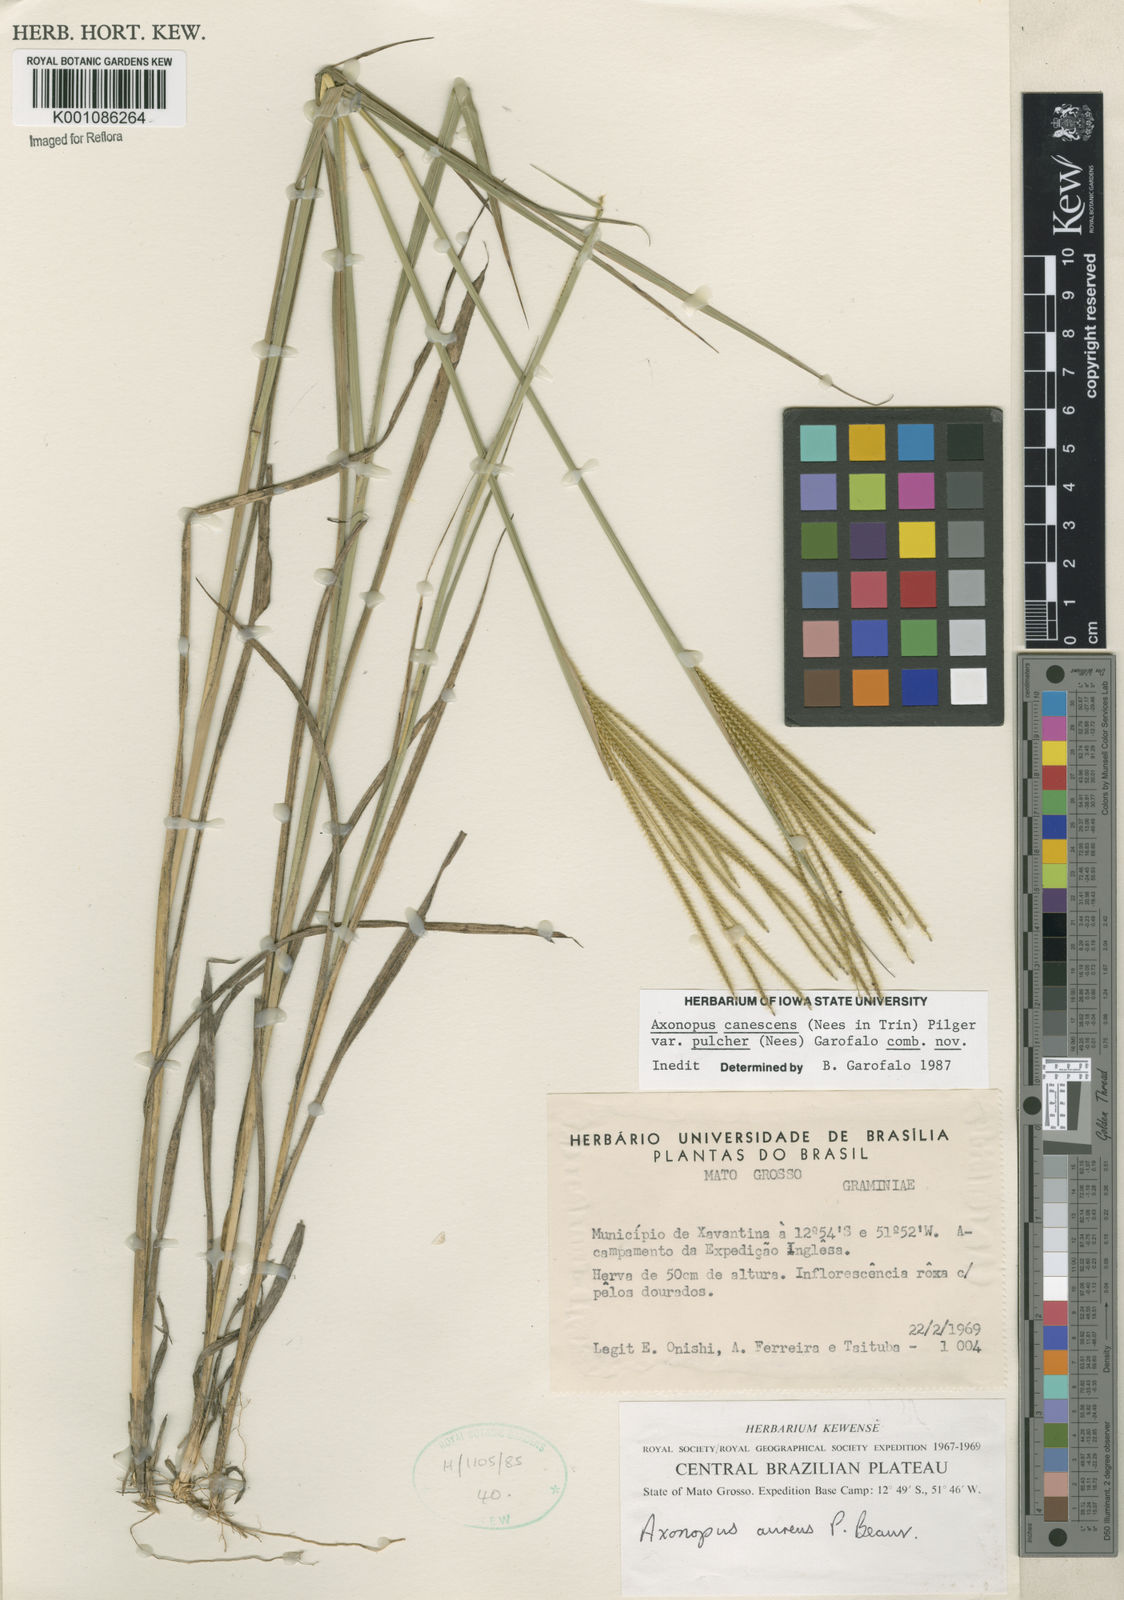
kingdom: Plantae
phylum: Tracheophyta
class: Liliopsida
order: Poales
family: Poaceae
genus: Axonopus
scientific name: Axonopus aureus
